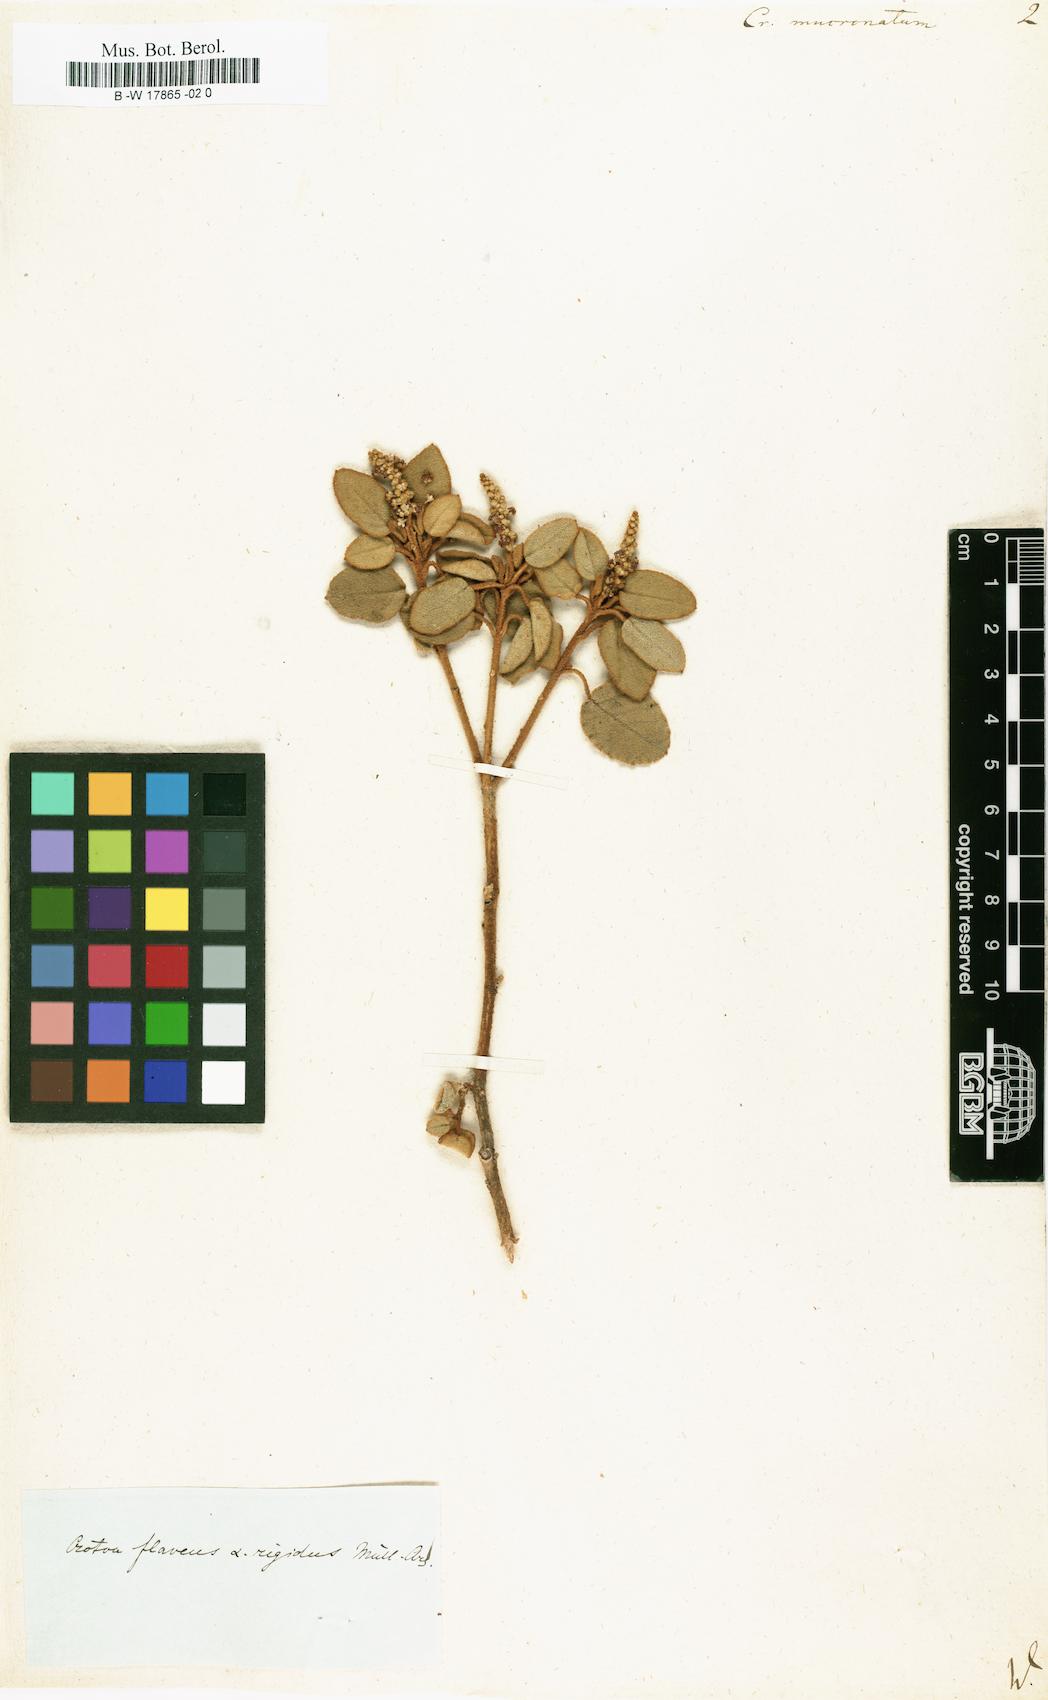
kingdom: Plantae
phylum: Tracheophyta
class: Magnoliopsida
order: Malpighiales
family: Euphorbiaceae
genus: Croton
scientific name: Croton flavens
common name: Yellow balsam
